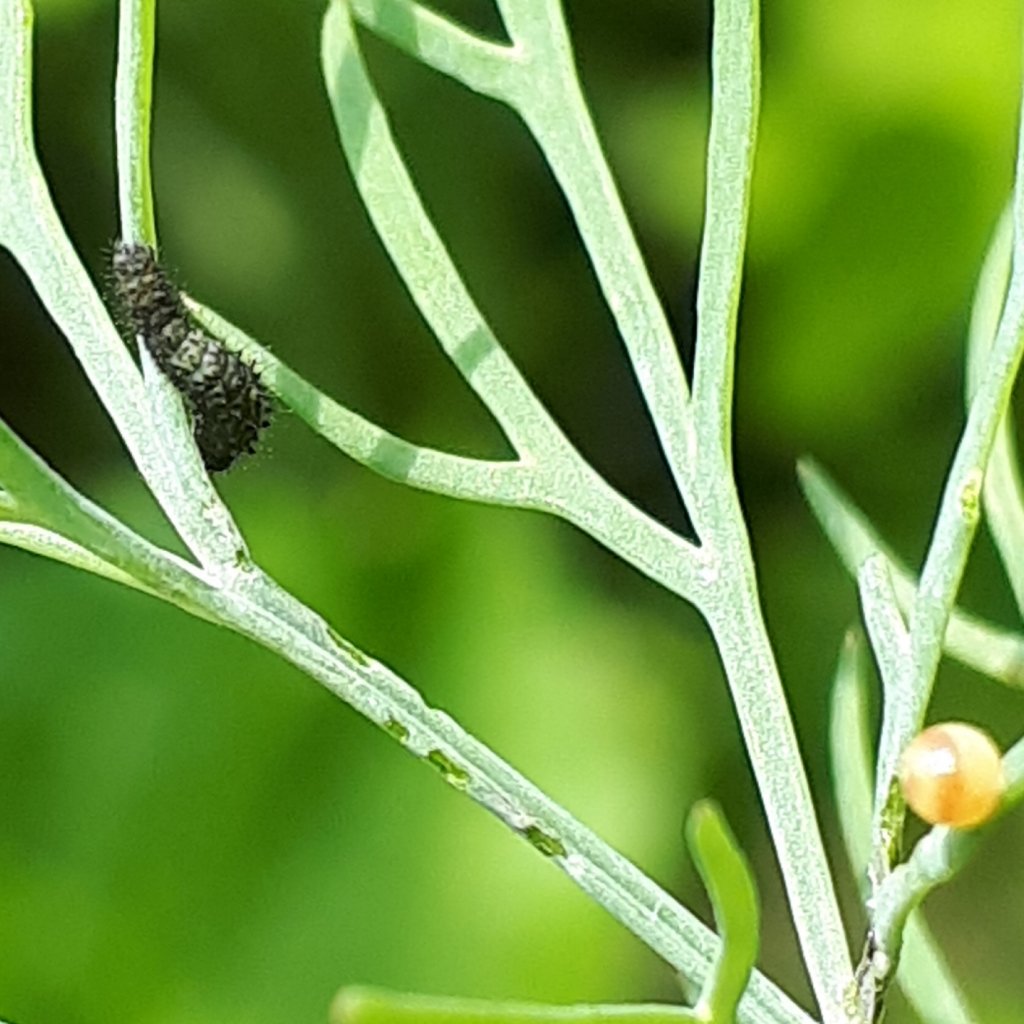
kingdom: Animalia
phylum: Arthropoda
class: Insecta
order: Lepidoptera
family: Papilionidae
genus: Papilio
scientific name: Papilio polyxenes
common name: Black Swallowtail
